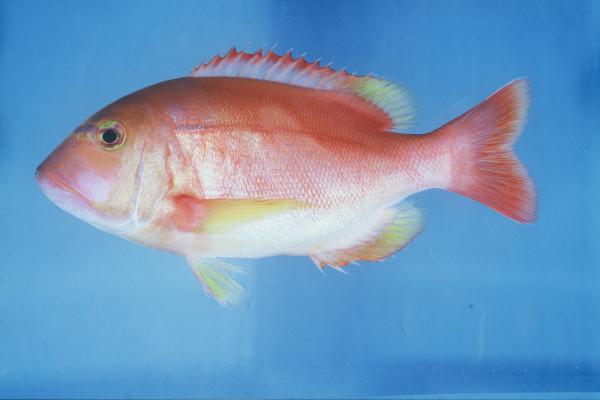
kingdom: Animalia
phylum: Chordata
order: Perciformes
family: Sparidae
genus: Porcostoma
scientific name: Porcostoma dentata
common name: Dane
